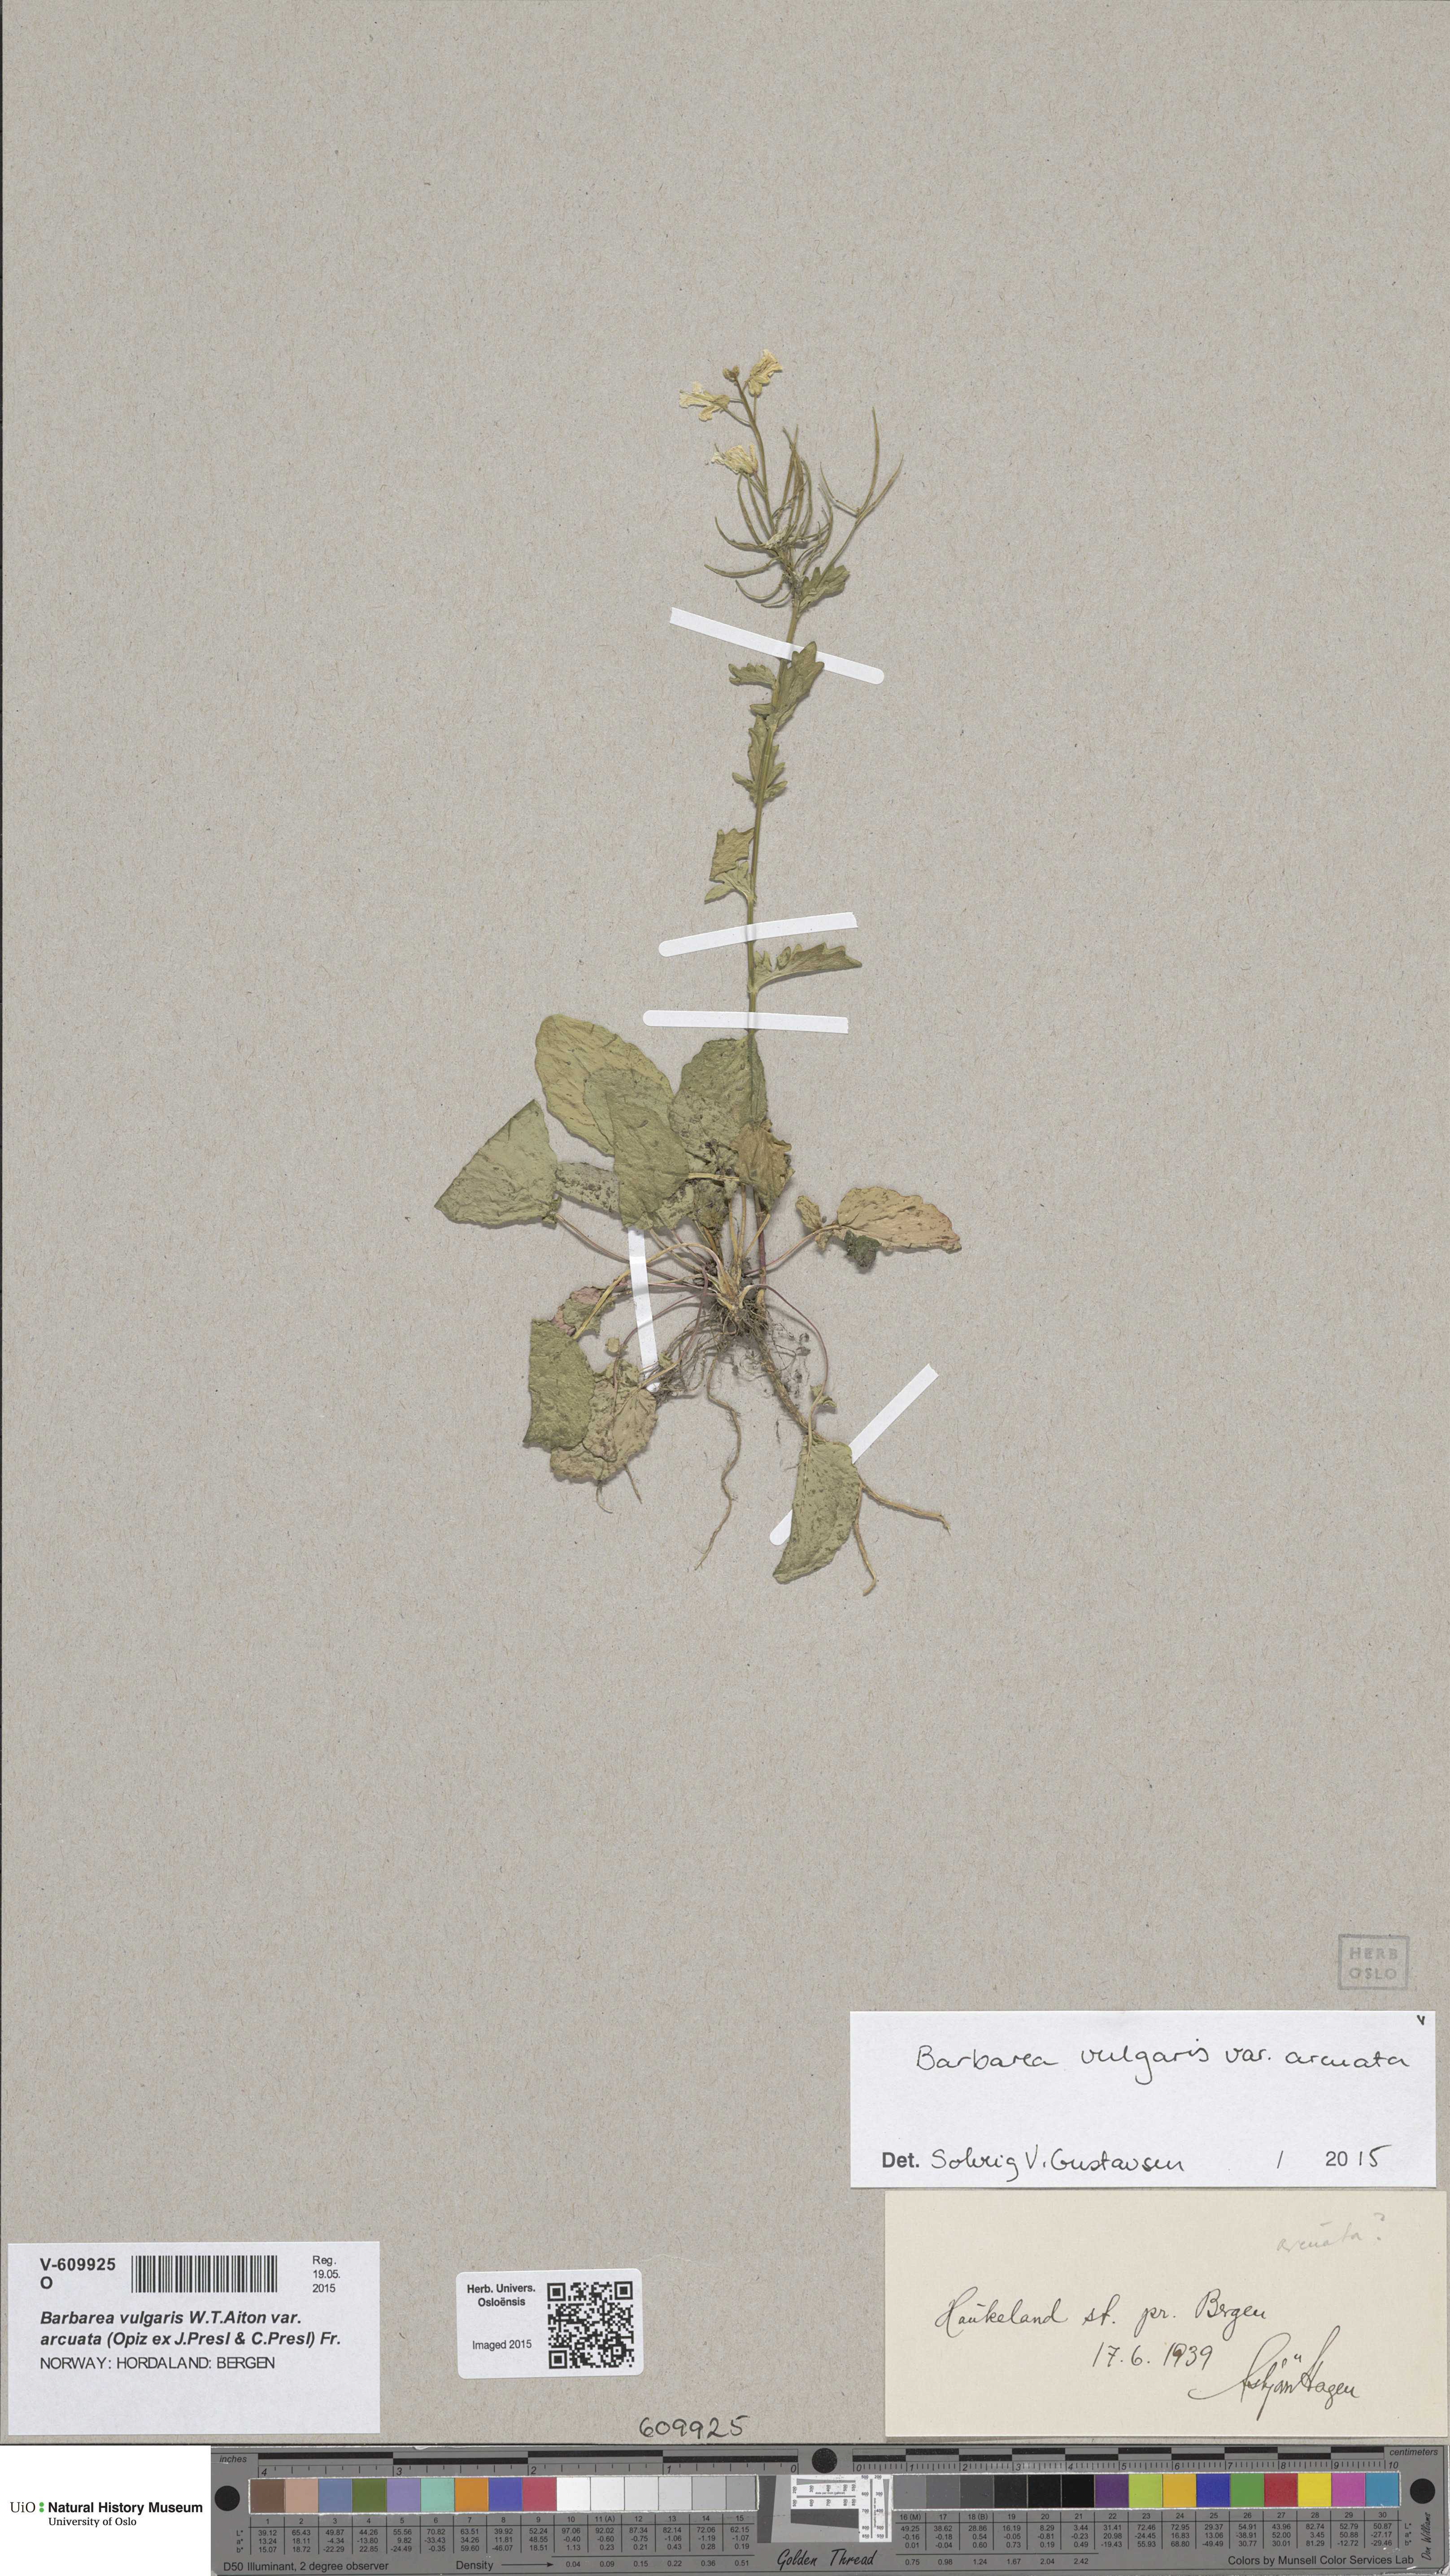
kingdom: Plantae
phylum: Tracheophyta
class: Magnoliopsida
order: Brassicales
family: Brassicaceae
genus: Barbarea
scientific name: Barbarea vulgaris
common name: Cressy-greens
